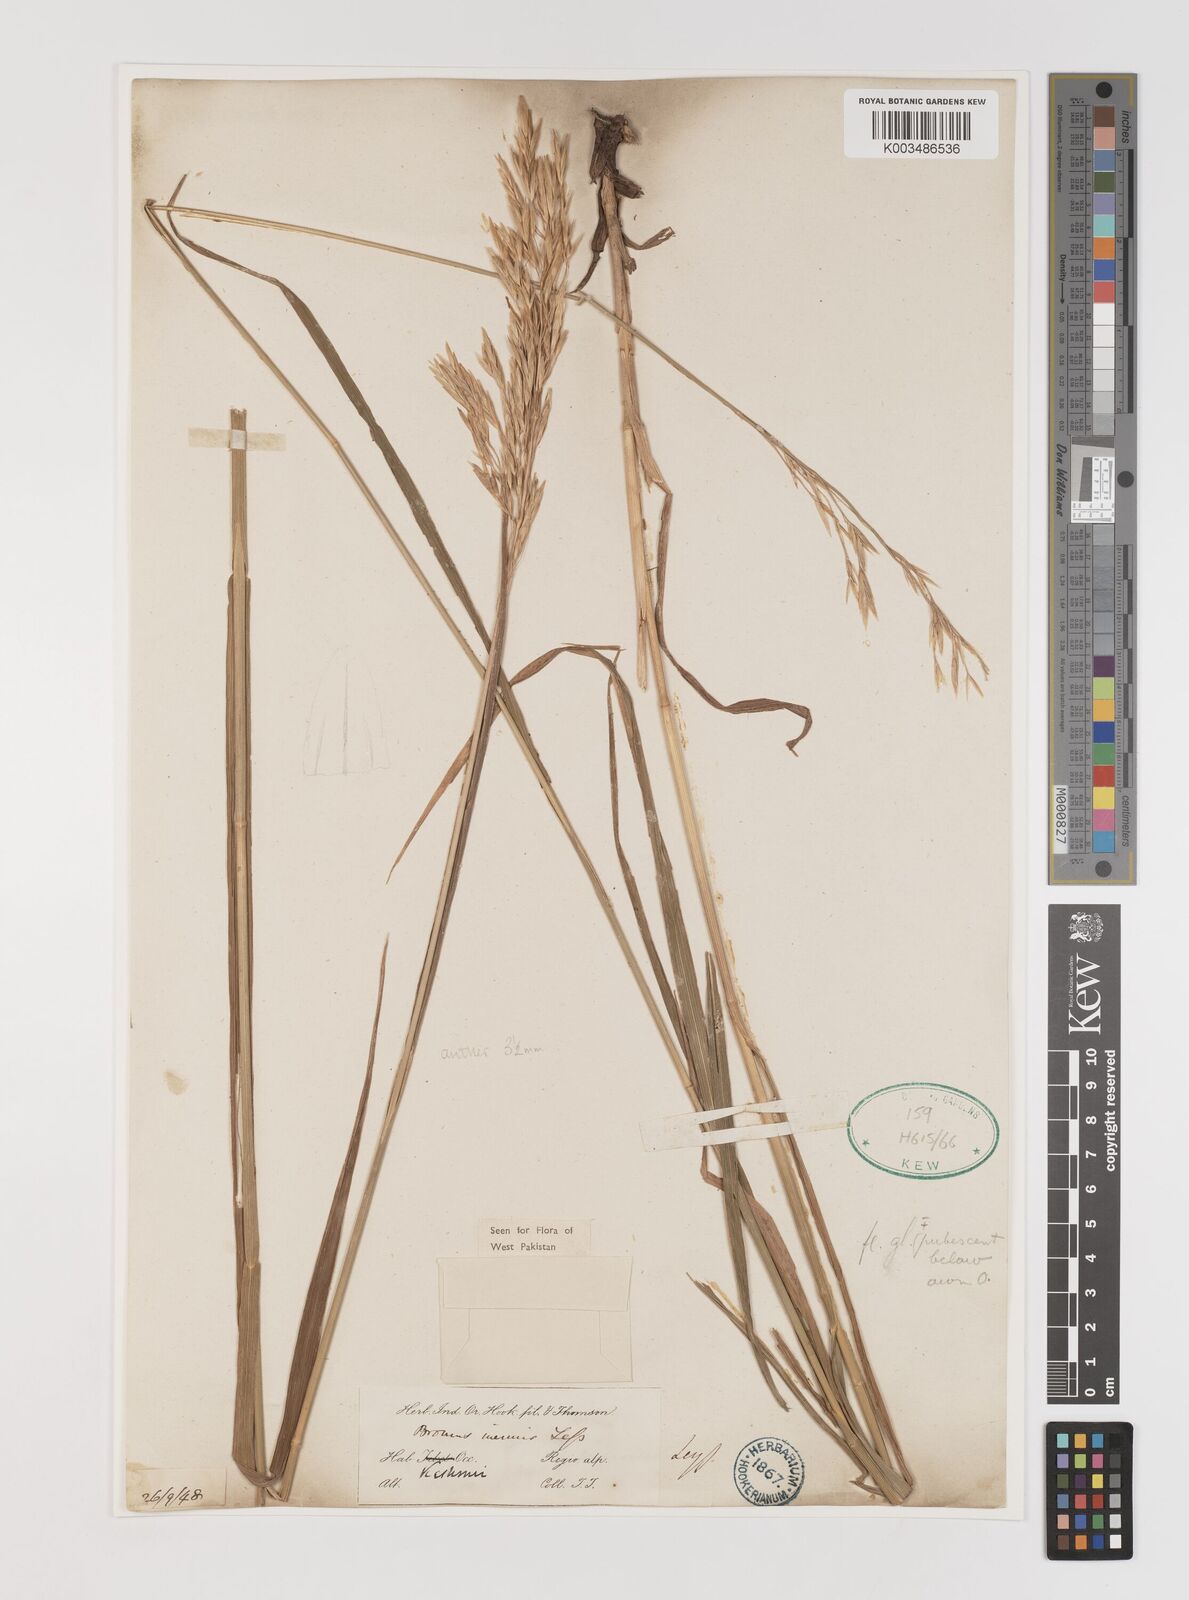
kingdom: Plantae
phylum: Tracheophyta
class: Liliopsida
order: Poales
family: Poaceae
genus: Bromus
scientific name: Bromus inermis
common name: Smooth brome
